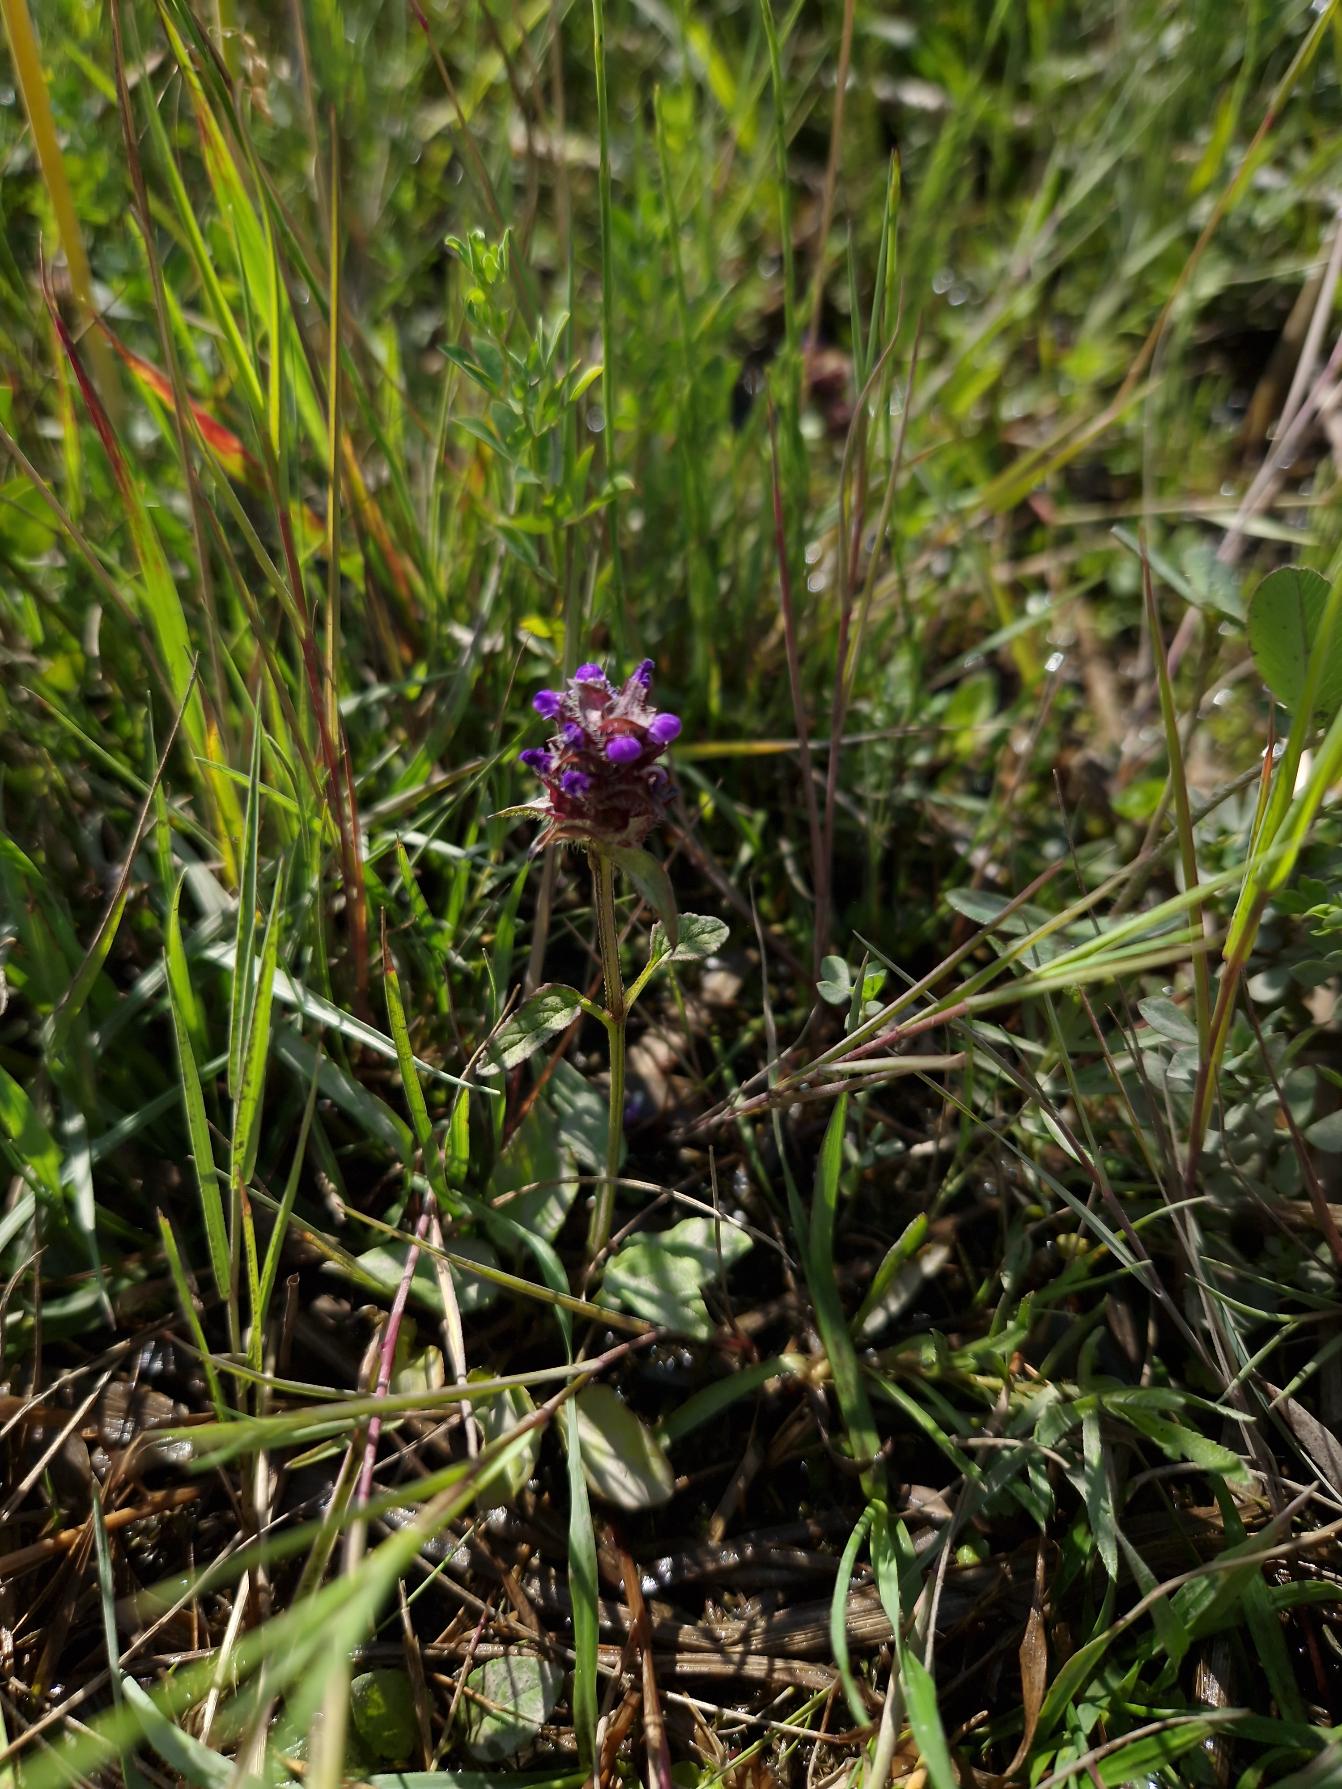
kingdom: Plantae
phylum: Tracheophyta
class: Magnoliopsida
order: Lamiales
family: Lamiaceae
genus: Prunella
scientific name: Prunella vulgaris
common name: Almindelig brunelle
